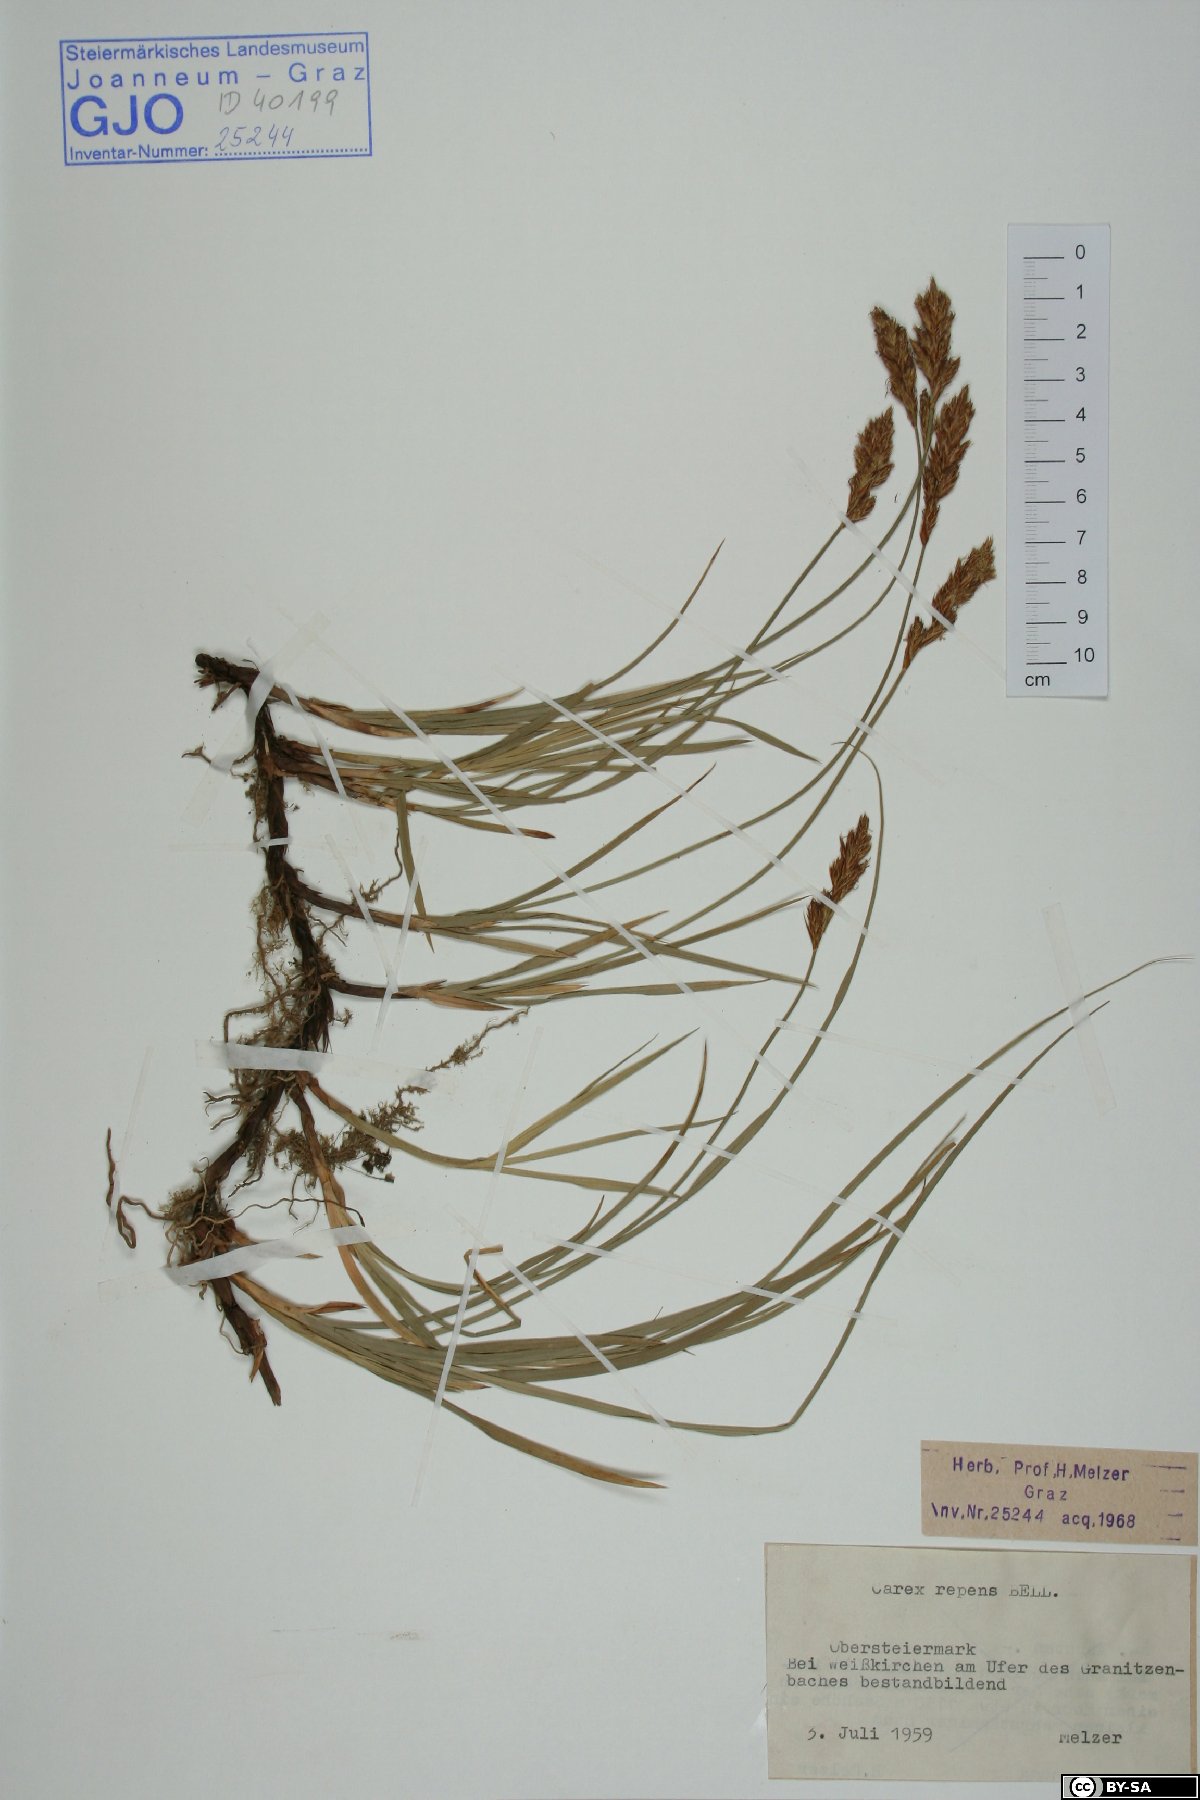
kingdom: Plantae
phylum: Tracheophyta
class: Liliopsida
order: Poales
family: Cyperaceae
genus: Carex
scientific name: Carex repens
